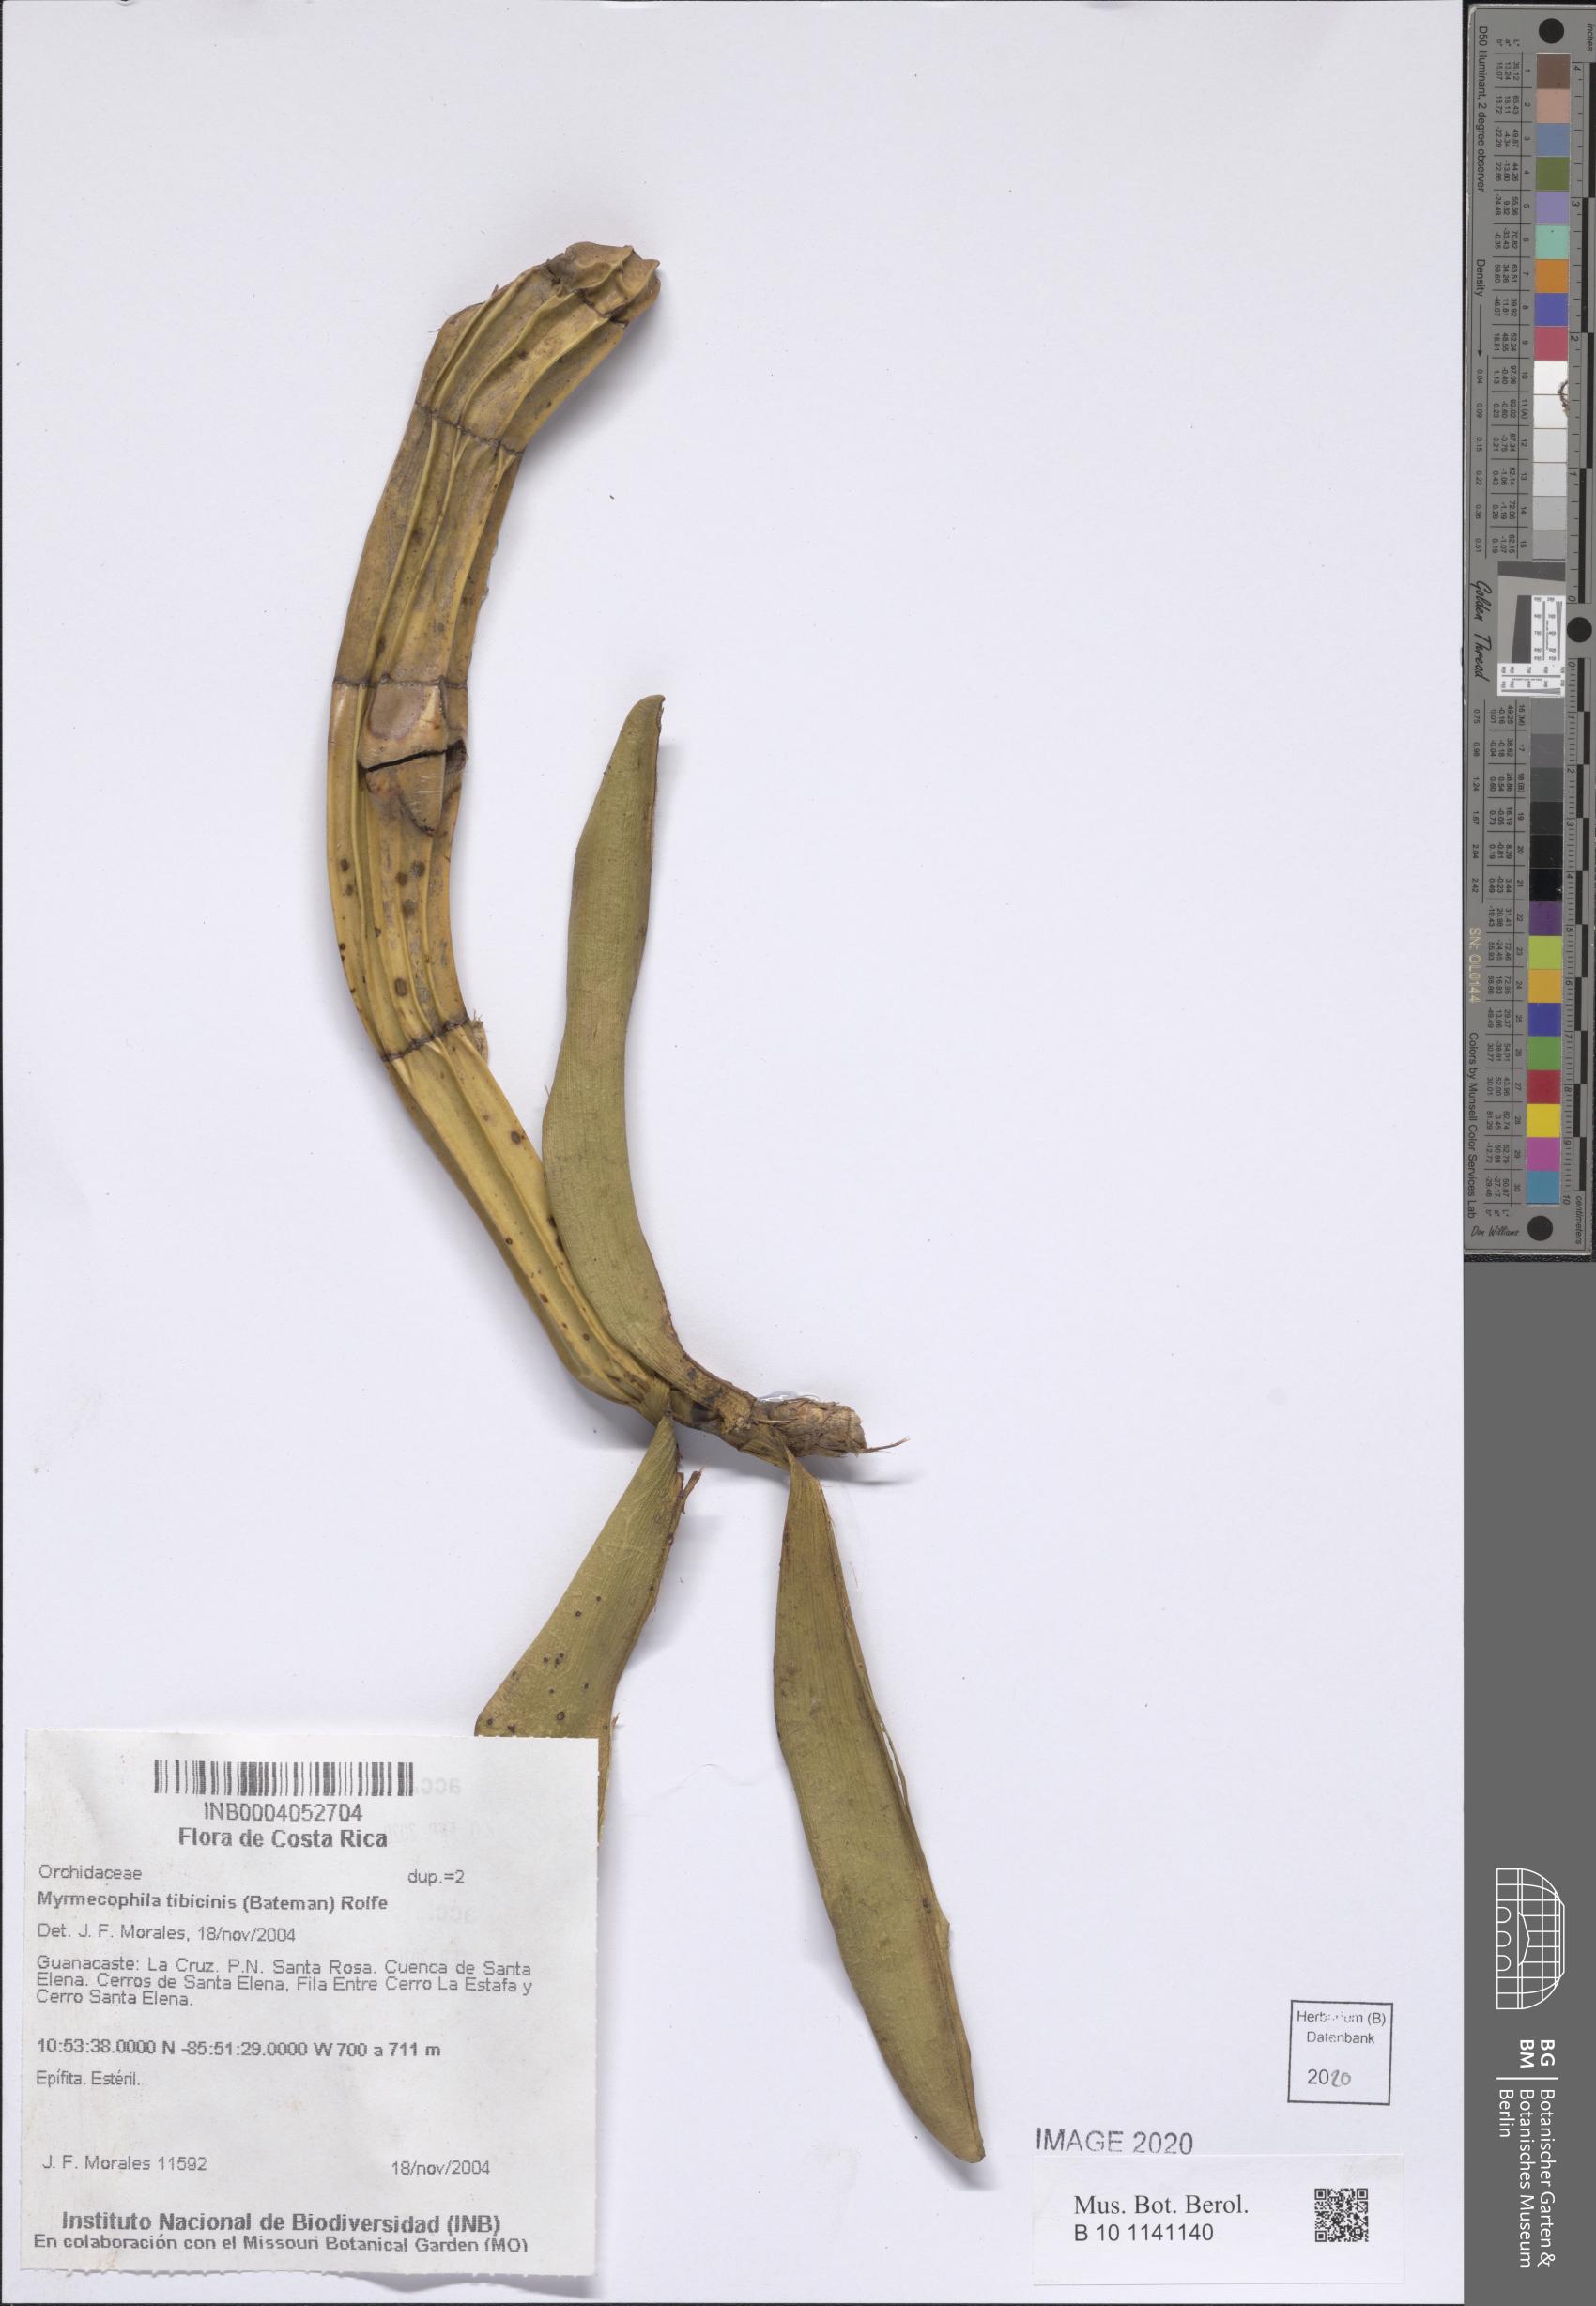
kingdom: Plantae
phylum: Tracheophyta
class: Liliopsida
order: Asparagales
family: Orchidaceae
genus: Myrmecophila
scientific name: Myrmecophila tibicinis
